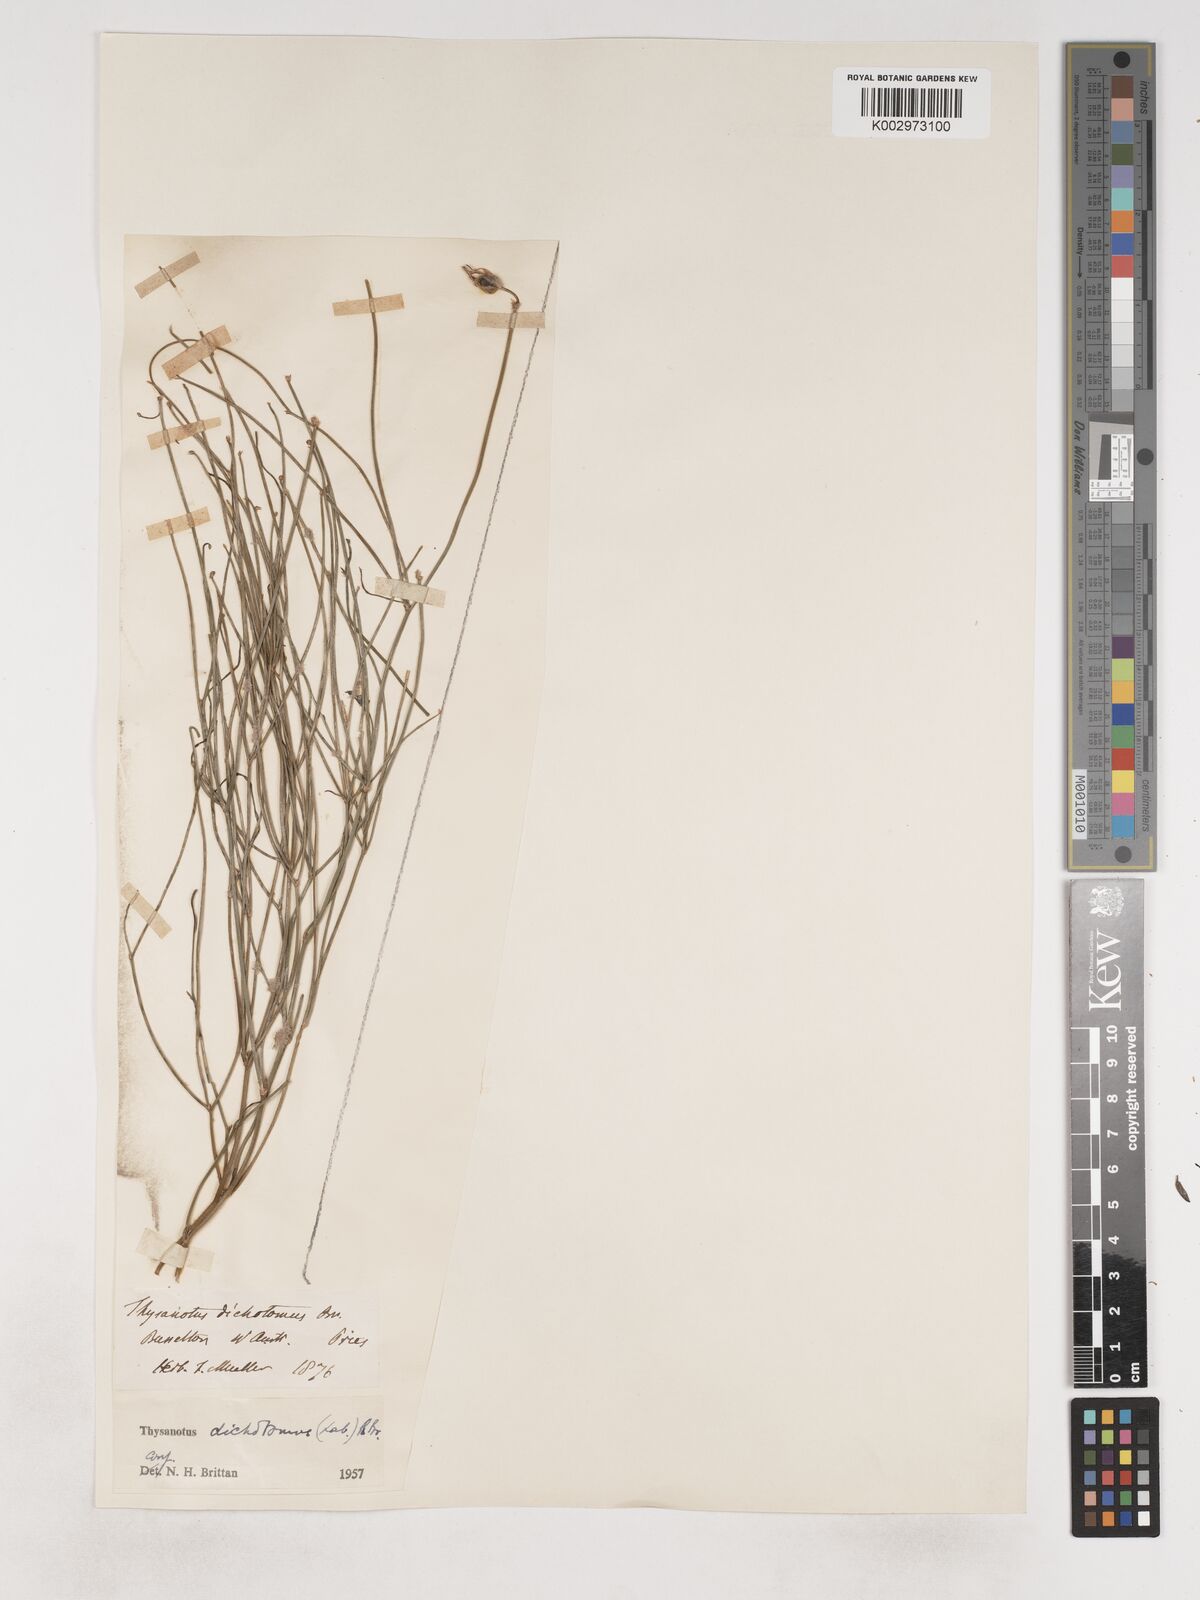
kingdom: Plantae
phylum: Tracheophyta
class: Liliopsida
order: Asparagales
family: Asparagaceae
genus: Thysanotus
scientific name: Thysanotus dichotomus
